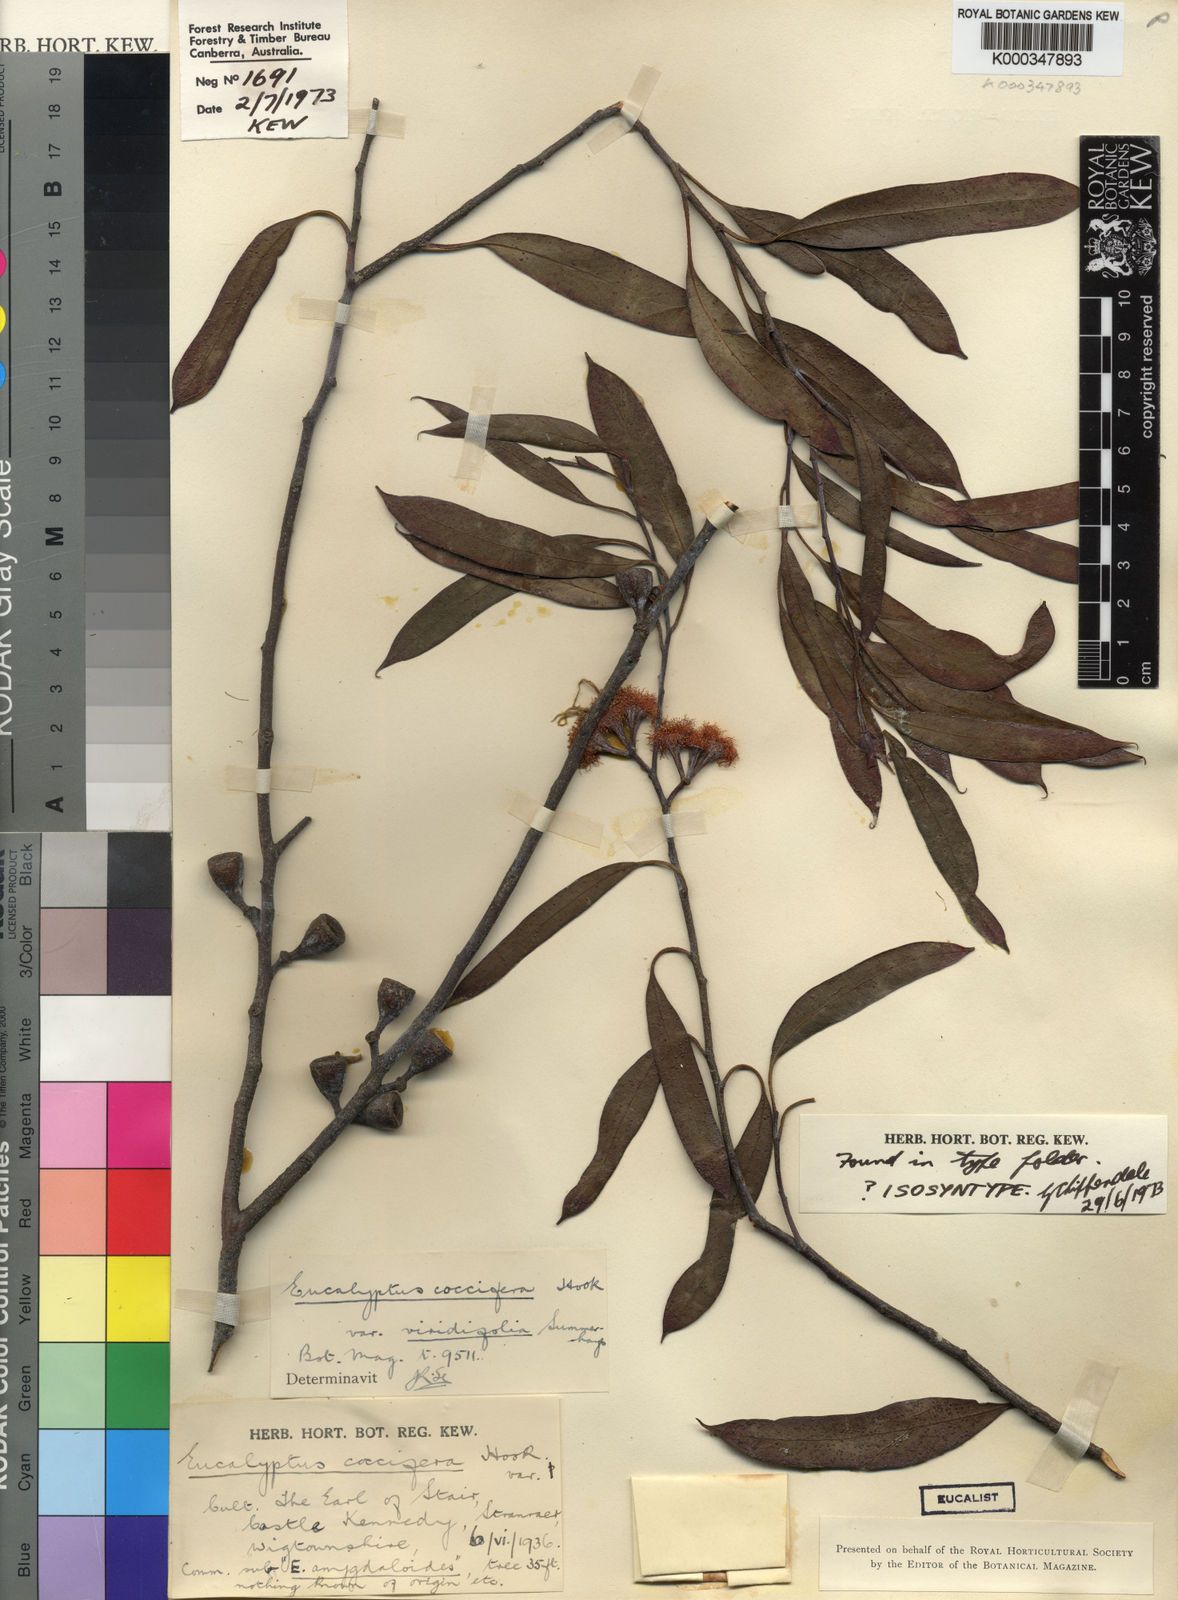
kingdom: Plantae
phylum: Tracheophyta
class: Magnoliopsida
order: Myrtales
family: Myrtaceae
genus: Eucalyptus
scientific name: Eucalyptus coccifera
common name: Tasmanian snow-gum
